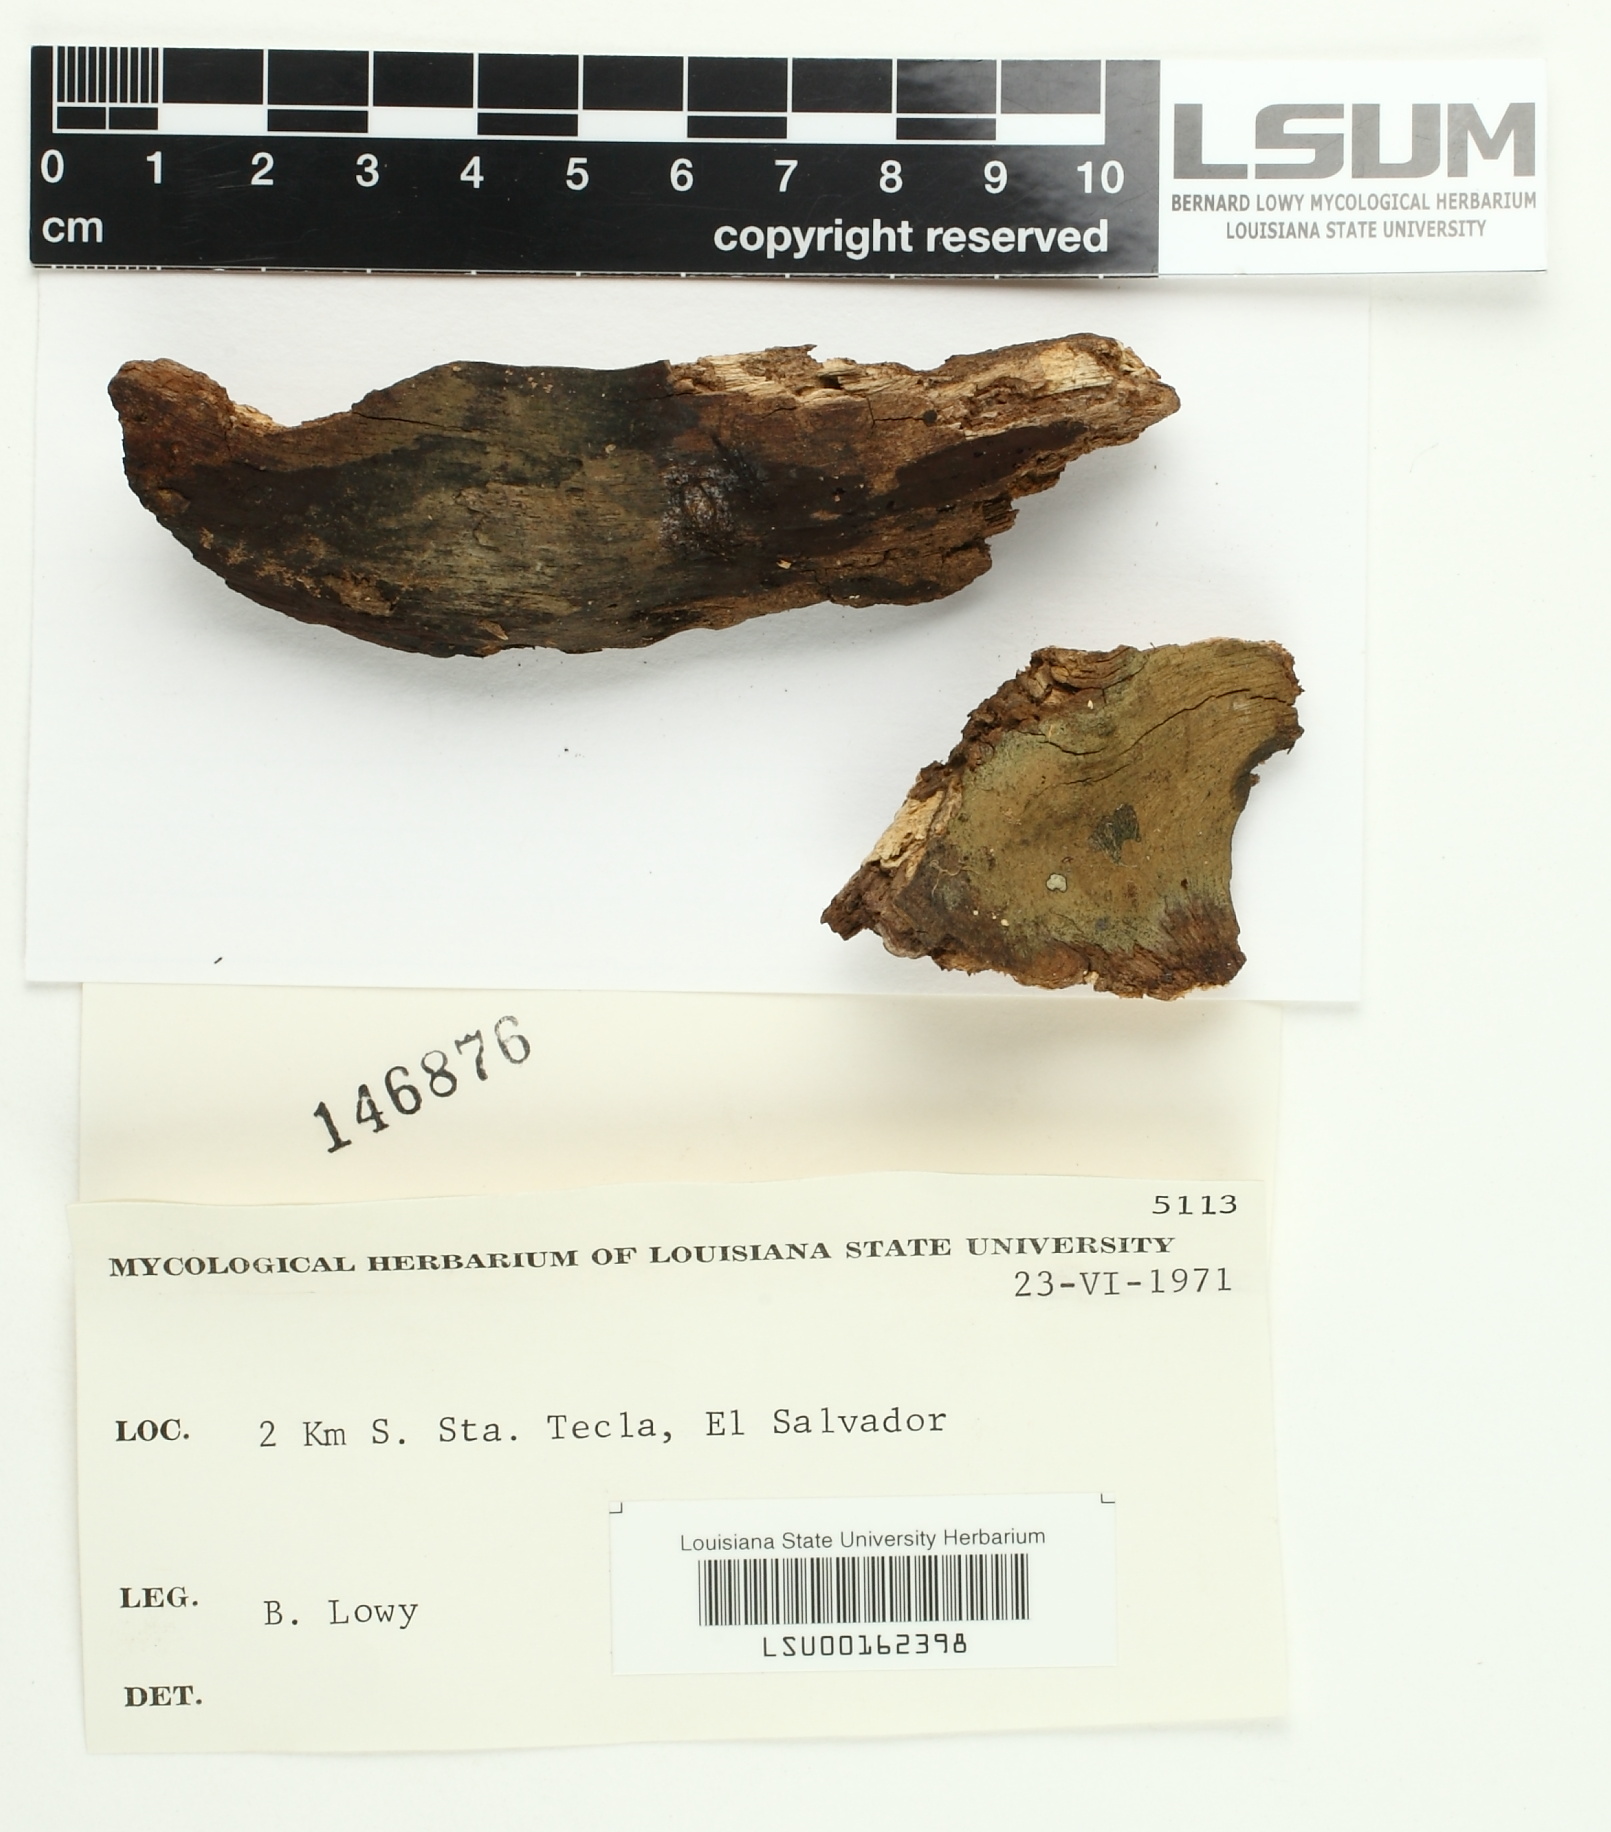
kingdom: Fungi
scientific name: Fungi
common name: Fungi
